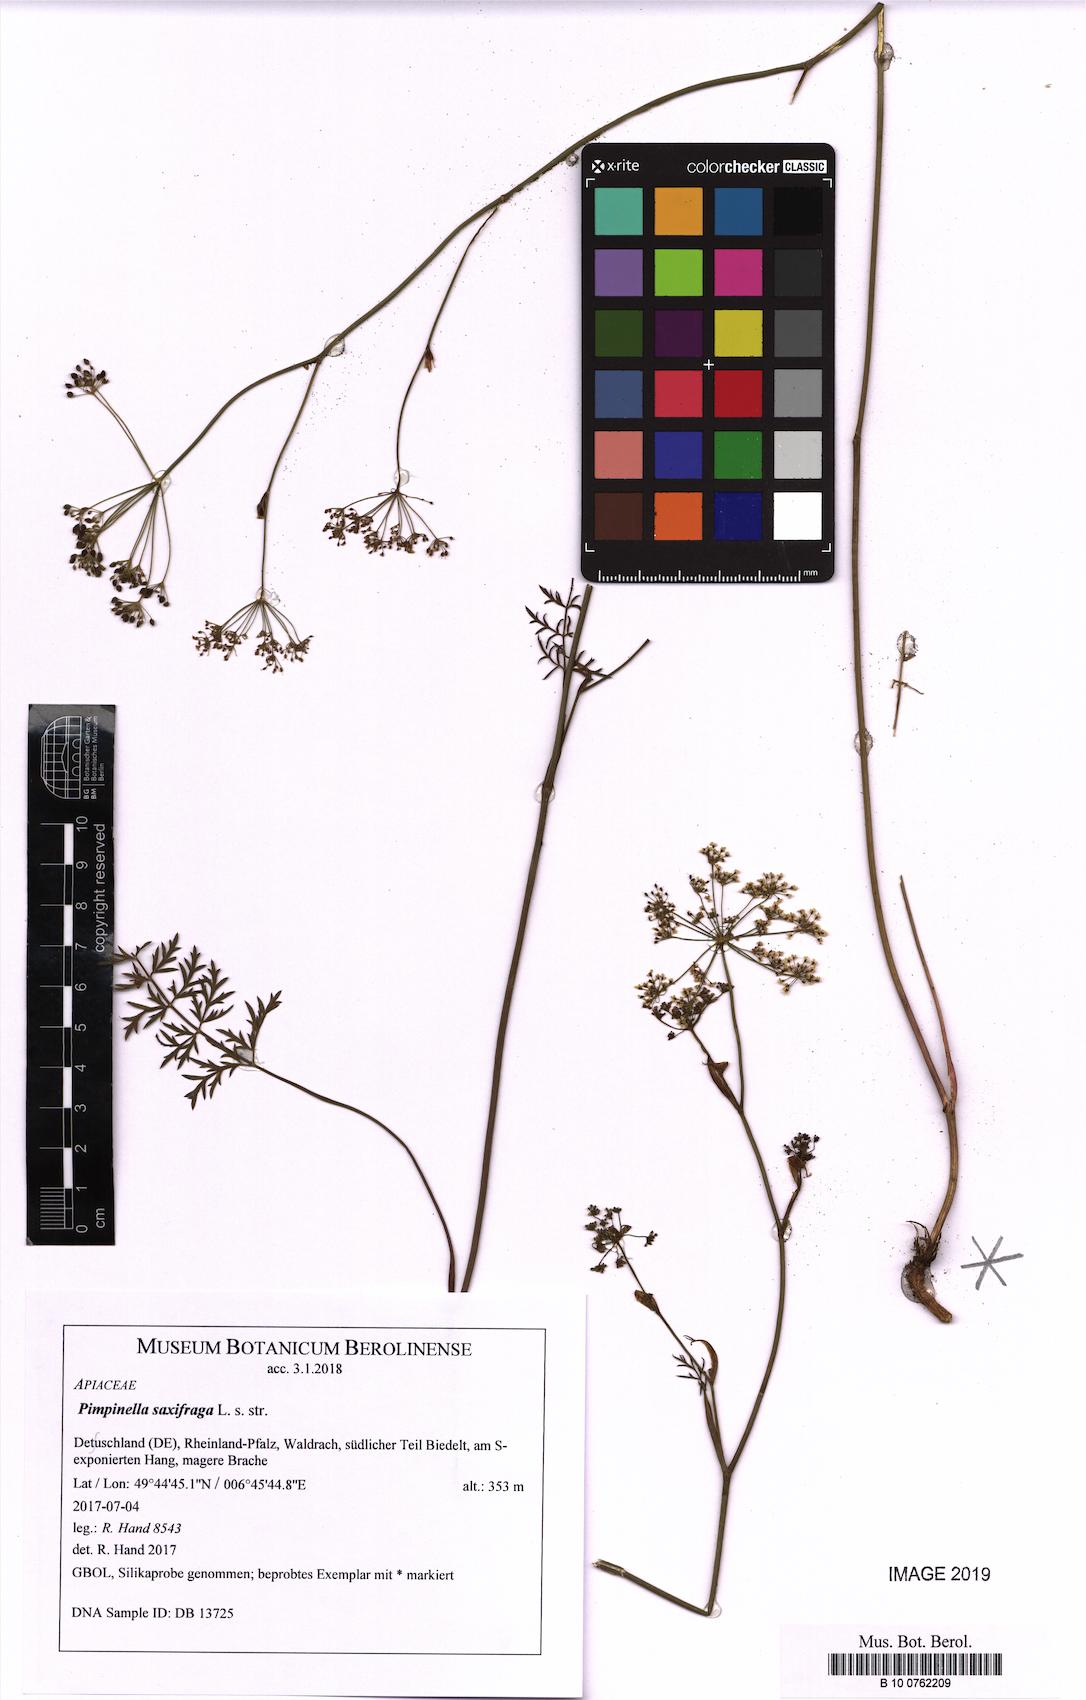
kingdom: Plantae
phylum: Tracheophyta
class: Magnoliopsida
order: Apiales
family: Apiaceae
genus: Pimpinella
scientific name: Pimpinella saxifraga
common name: Burnet-saxifrage
